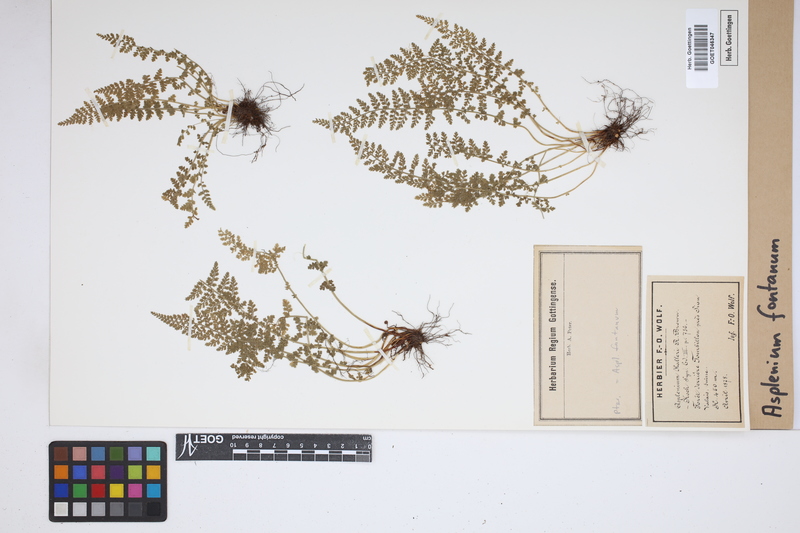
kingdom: Plantae
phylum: Tracheophyta
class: Polypodiopsida
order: Polypodiales
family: Aspleniaceae
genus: Asplenium
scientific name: Asplenium fontanum
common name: Fountain spleenwort
